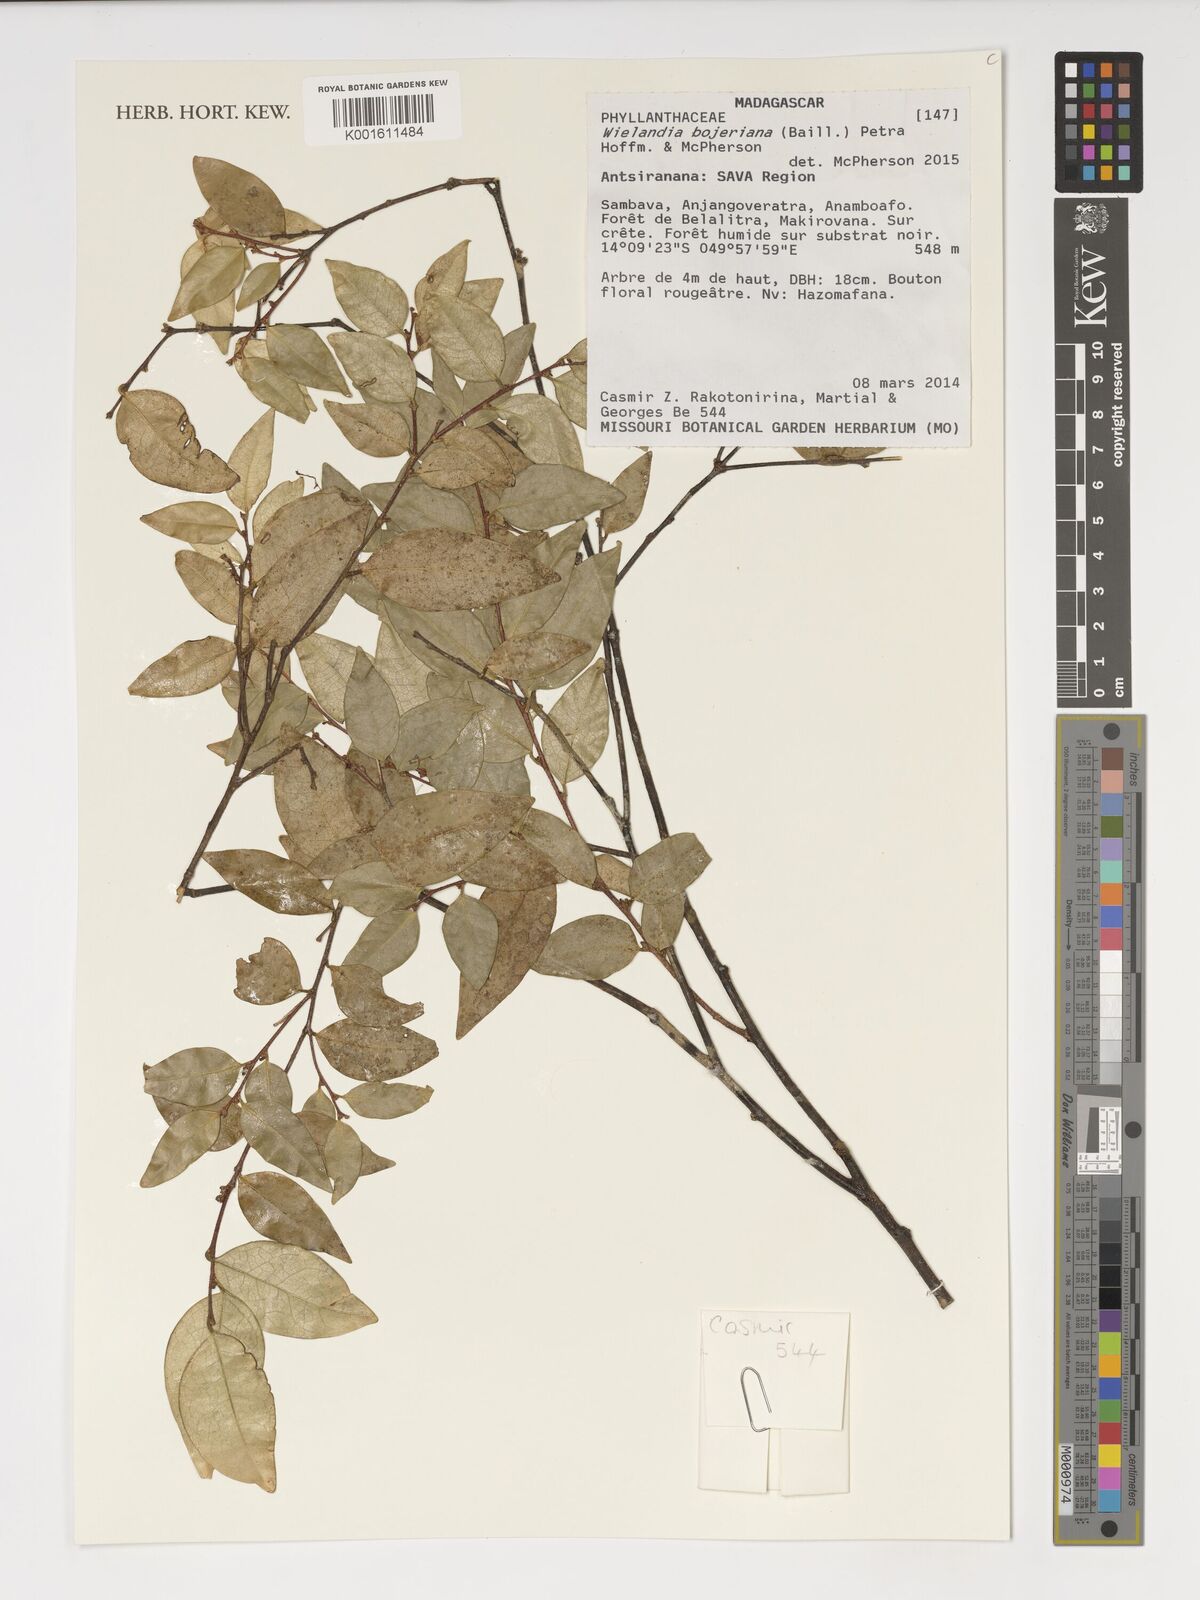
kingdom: Plantae
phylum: Tracheophyta
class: Magnoliopsida
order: Malpighiales
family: Phyllanthaceae
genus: Wielandia
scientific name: Wielandia bojeriana
